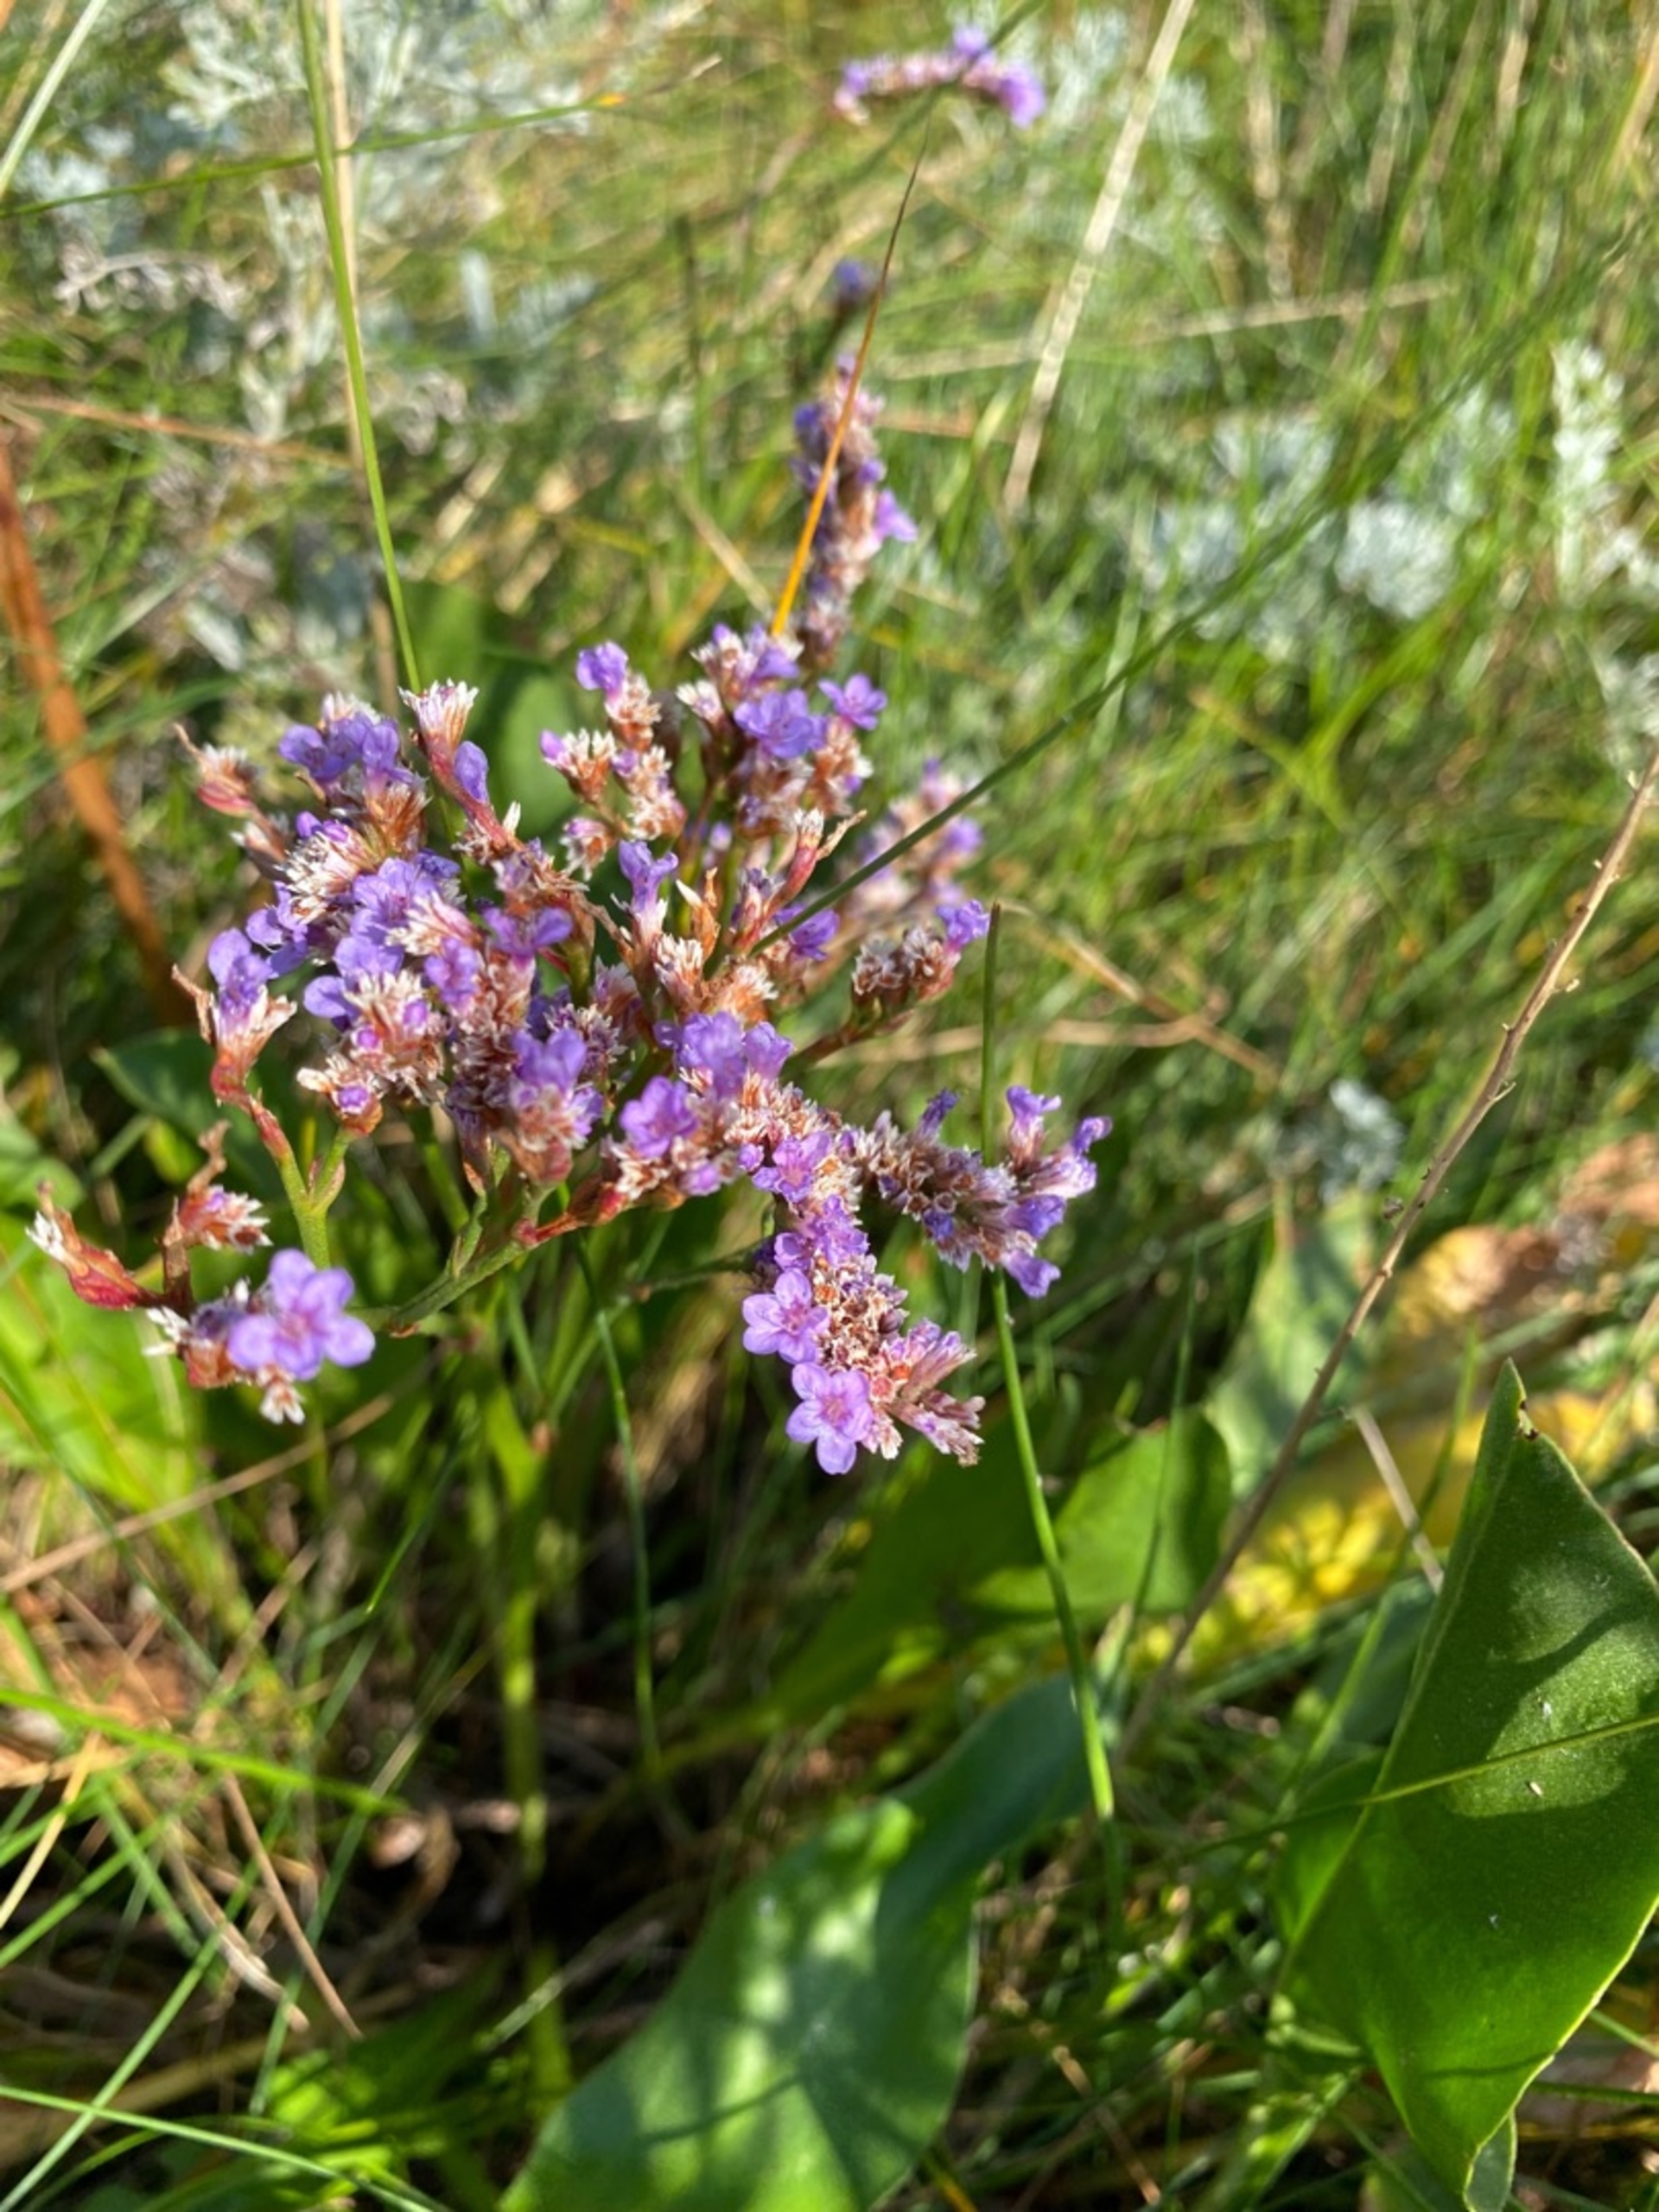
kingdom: Plantae
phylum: Tracheophyta
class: Magnoliopsida
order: Caryophyllales
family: Plumbaginaceae
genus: Limonium
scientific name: Limonium vulgare
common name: Tætblomstret hindebæger
